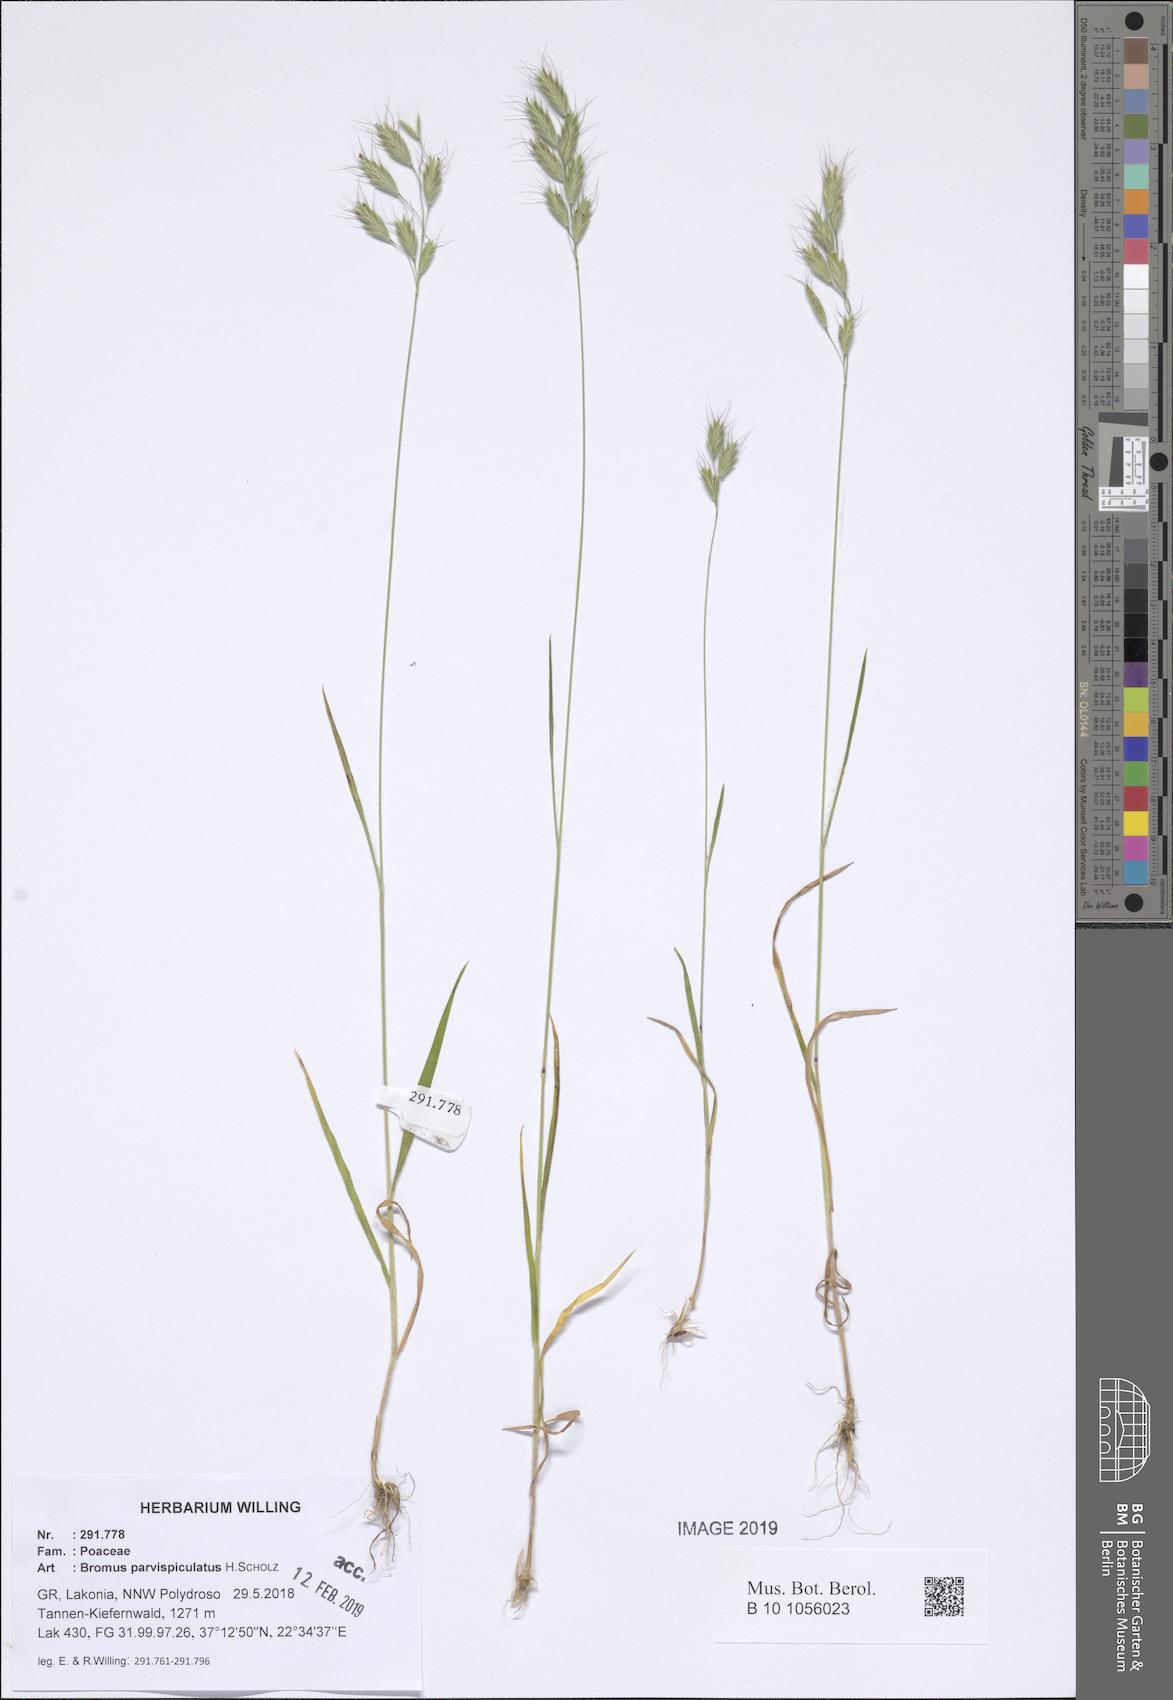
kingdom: Plantae
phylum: Tracheophyta
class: Liliopsida
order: Poales
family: Poaceae
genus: Bromus
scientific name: Bromus hordeaceus
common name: Soft brome
